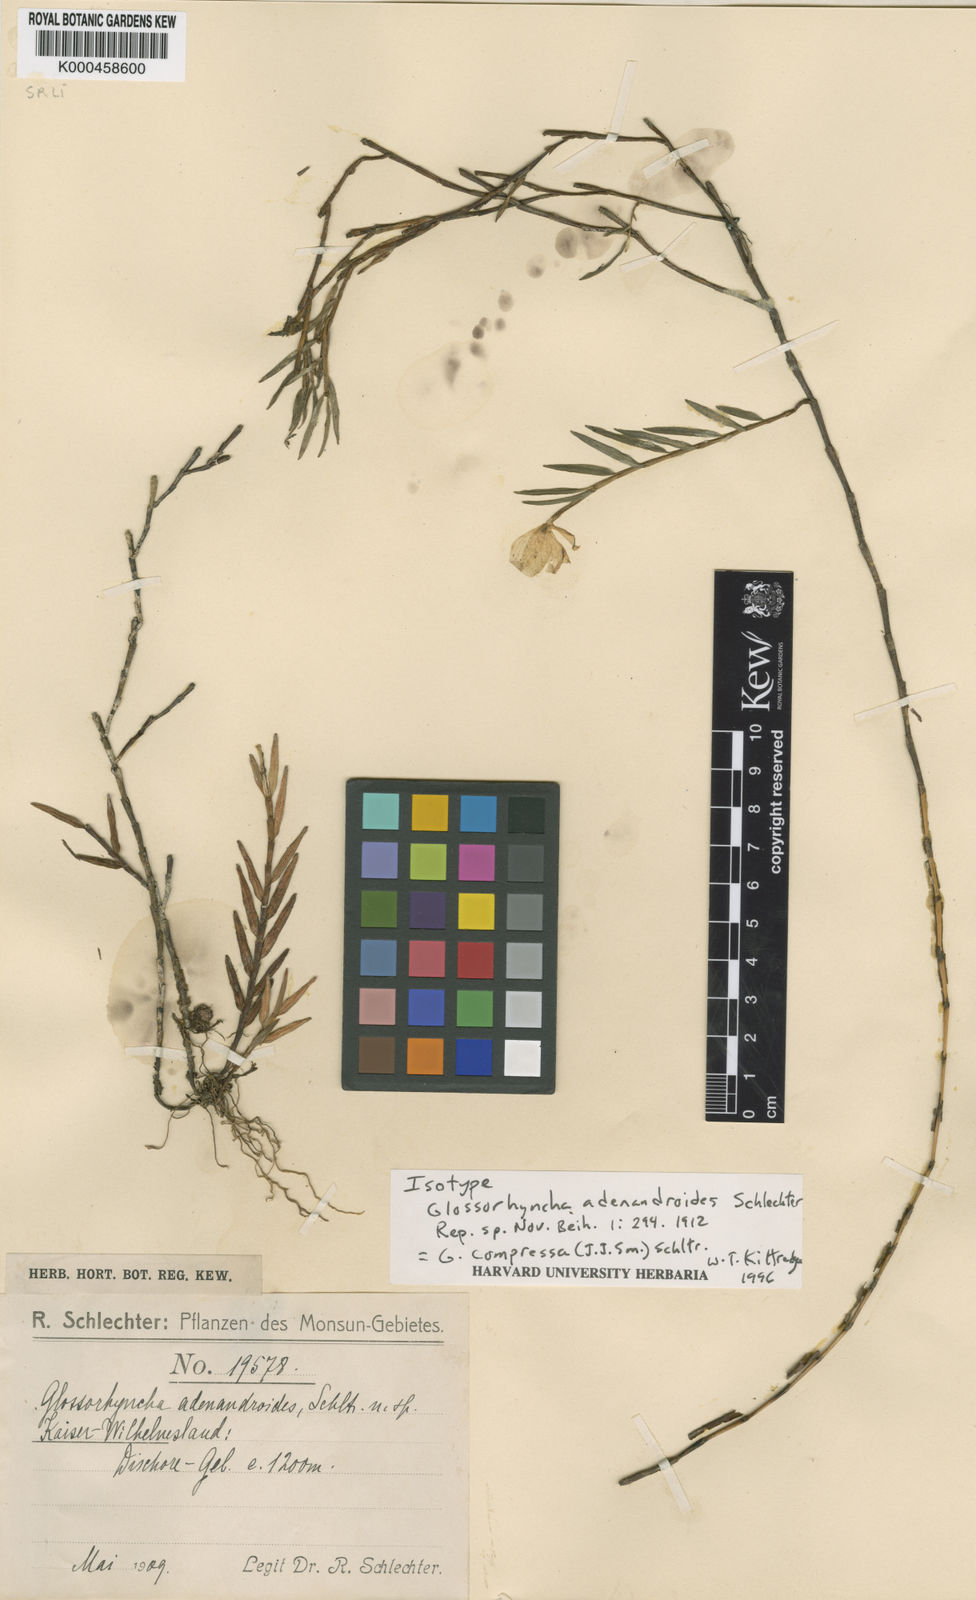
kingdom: Plantae
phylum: Tracheophyta
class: Liliopsida
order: Asparagales
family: Orchidaceae
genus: Glomera
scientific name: Glomera compressa
